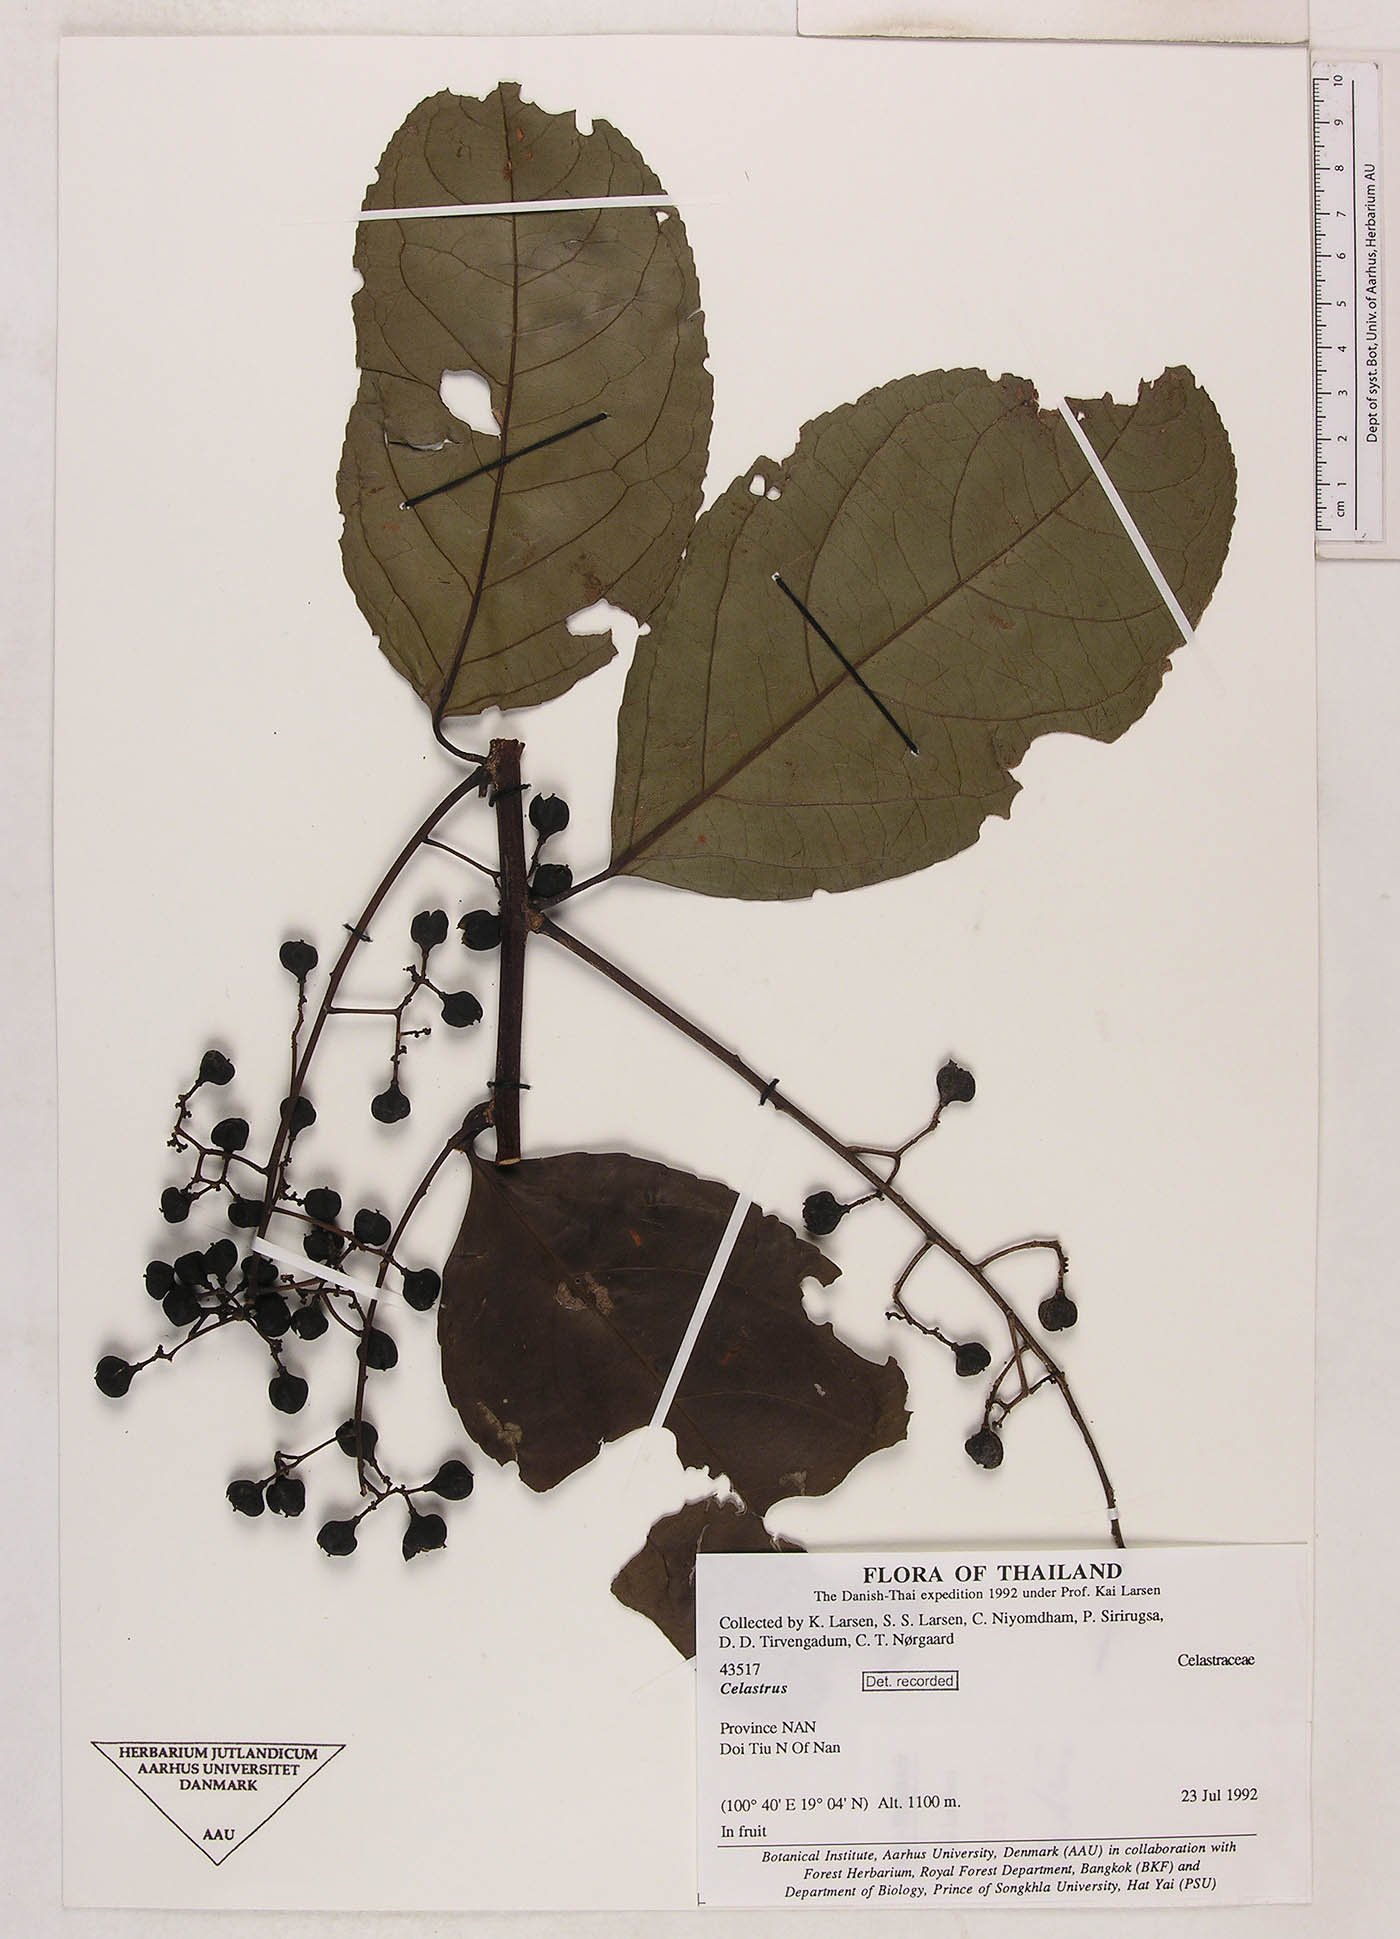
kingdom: Plantae
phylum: Tracheophyta
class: Magnoliopsida
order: Celastrales
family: Celastraceae
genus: Celastrus
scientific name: Celastrus
